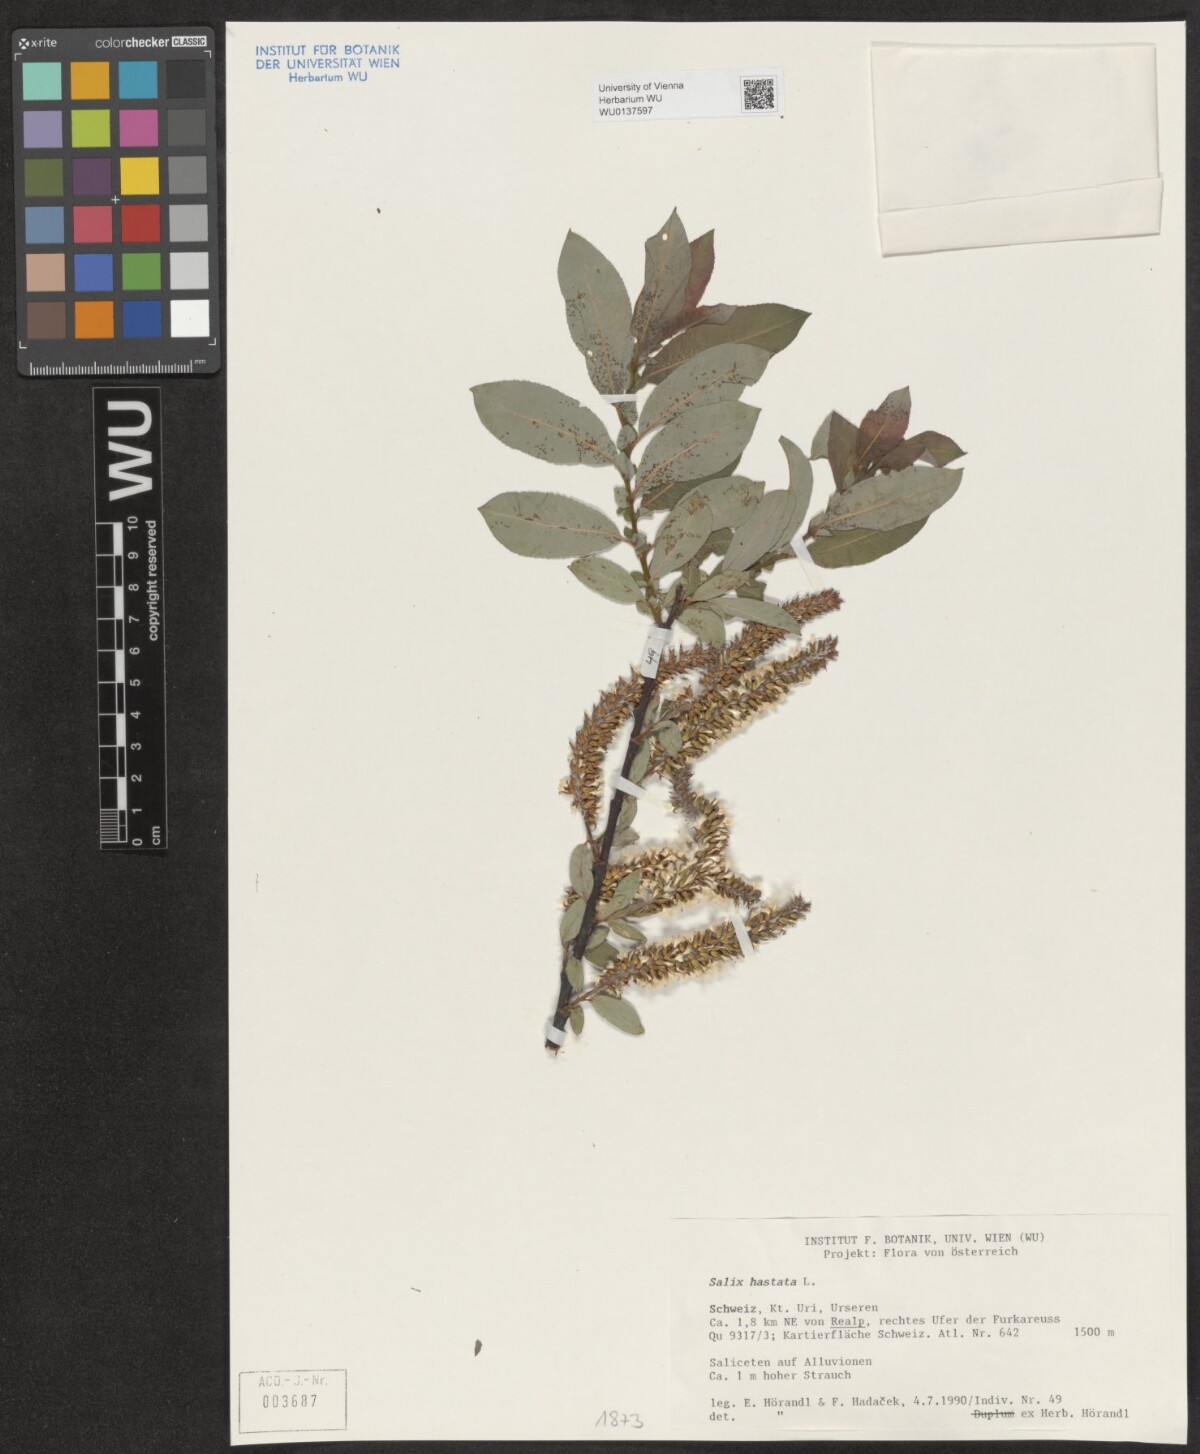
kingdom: Plantae
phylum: Tracheophyta
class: Magnoliopsida
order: Malpighiales
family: Salicaceae
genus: Salix
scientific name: Salix hastata
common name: Halberd willow
